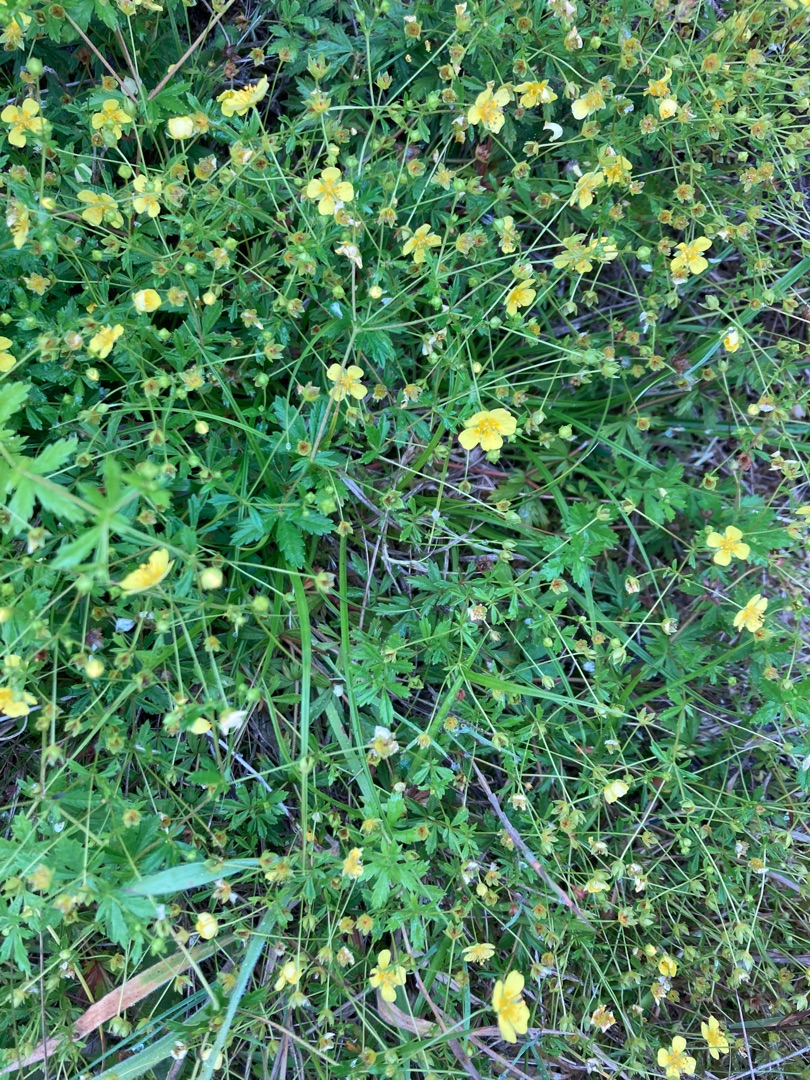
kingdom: Plantae
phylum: Tracheophyta
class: Magnoliopsida
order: Rosales
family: Rosaceae
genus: Potentilla
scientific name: Potentilla erecta
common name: Tormentil
